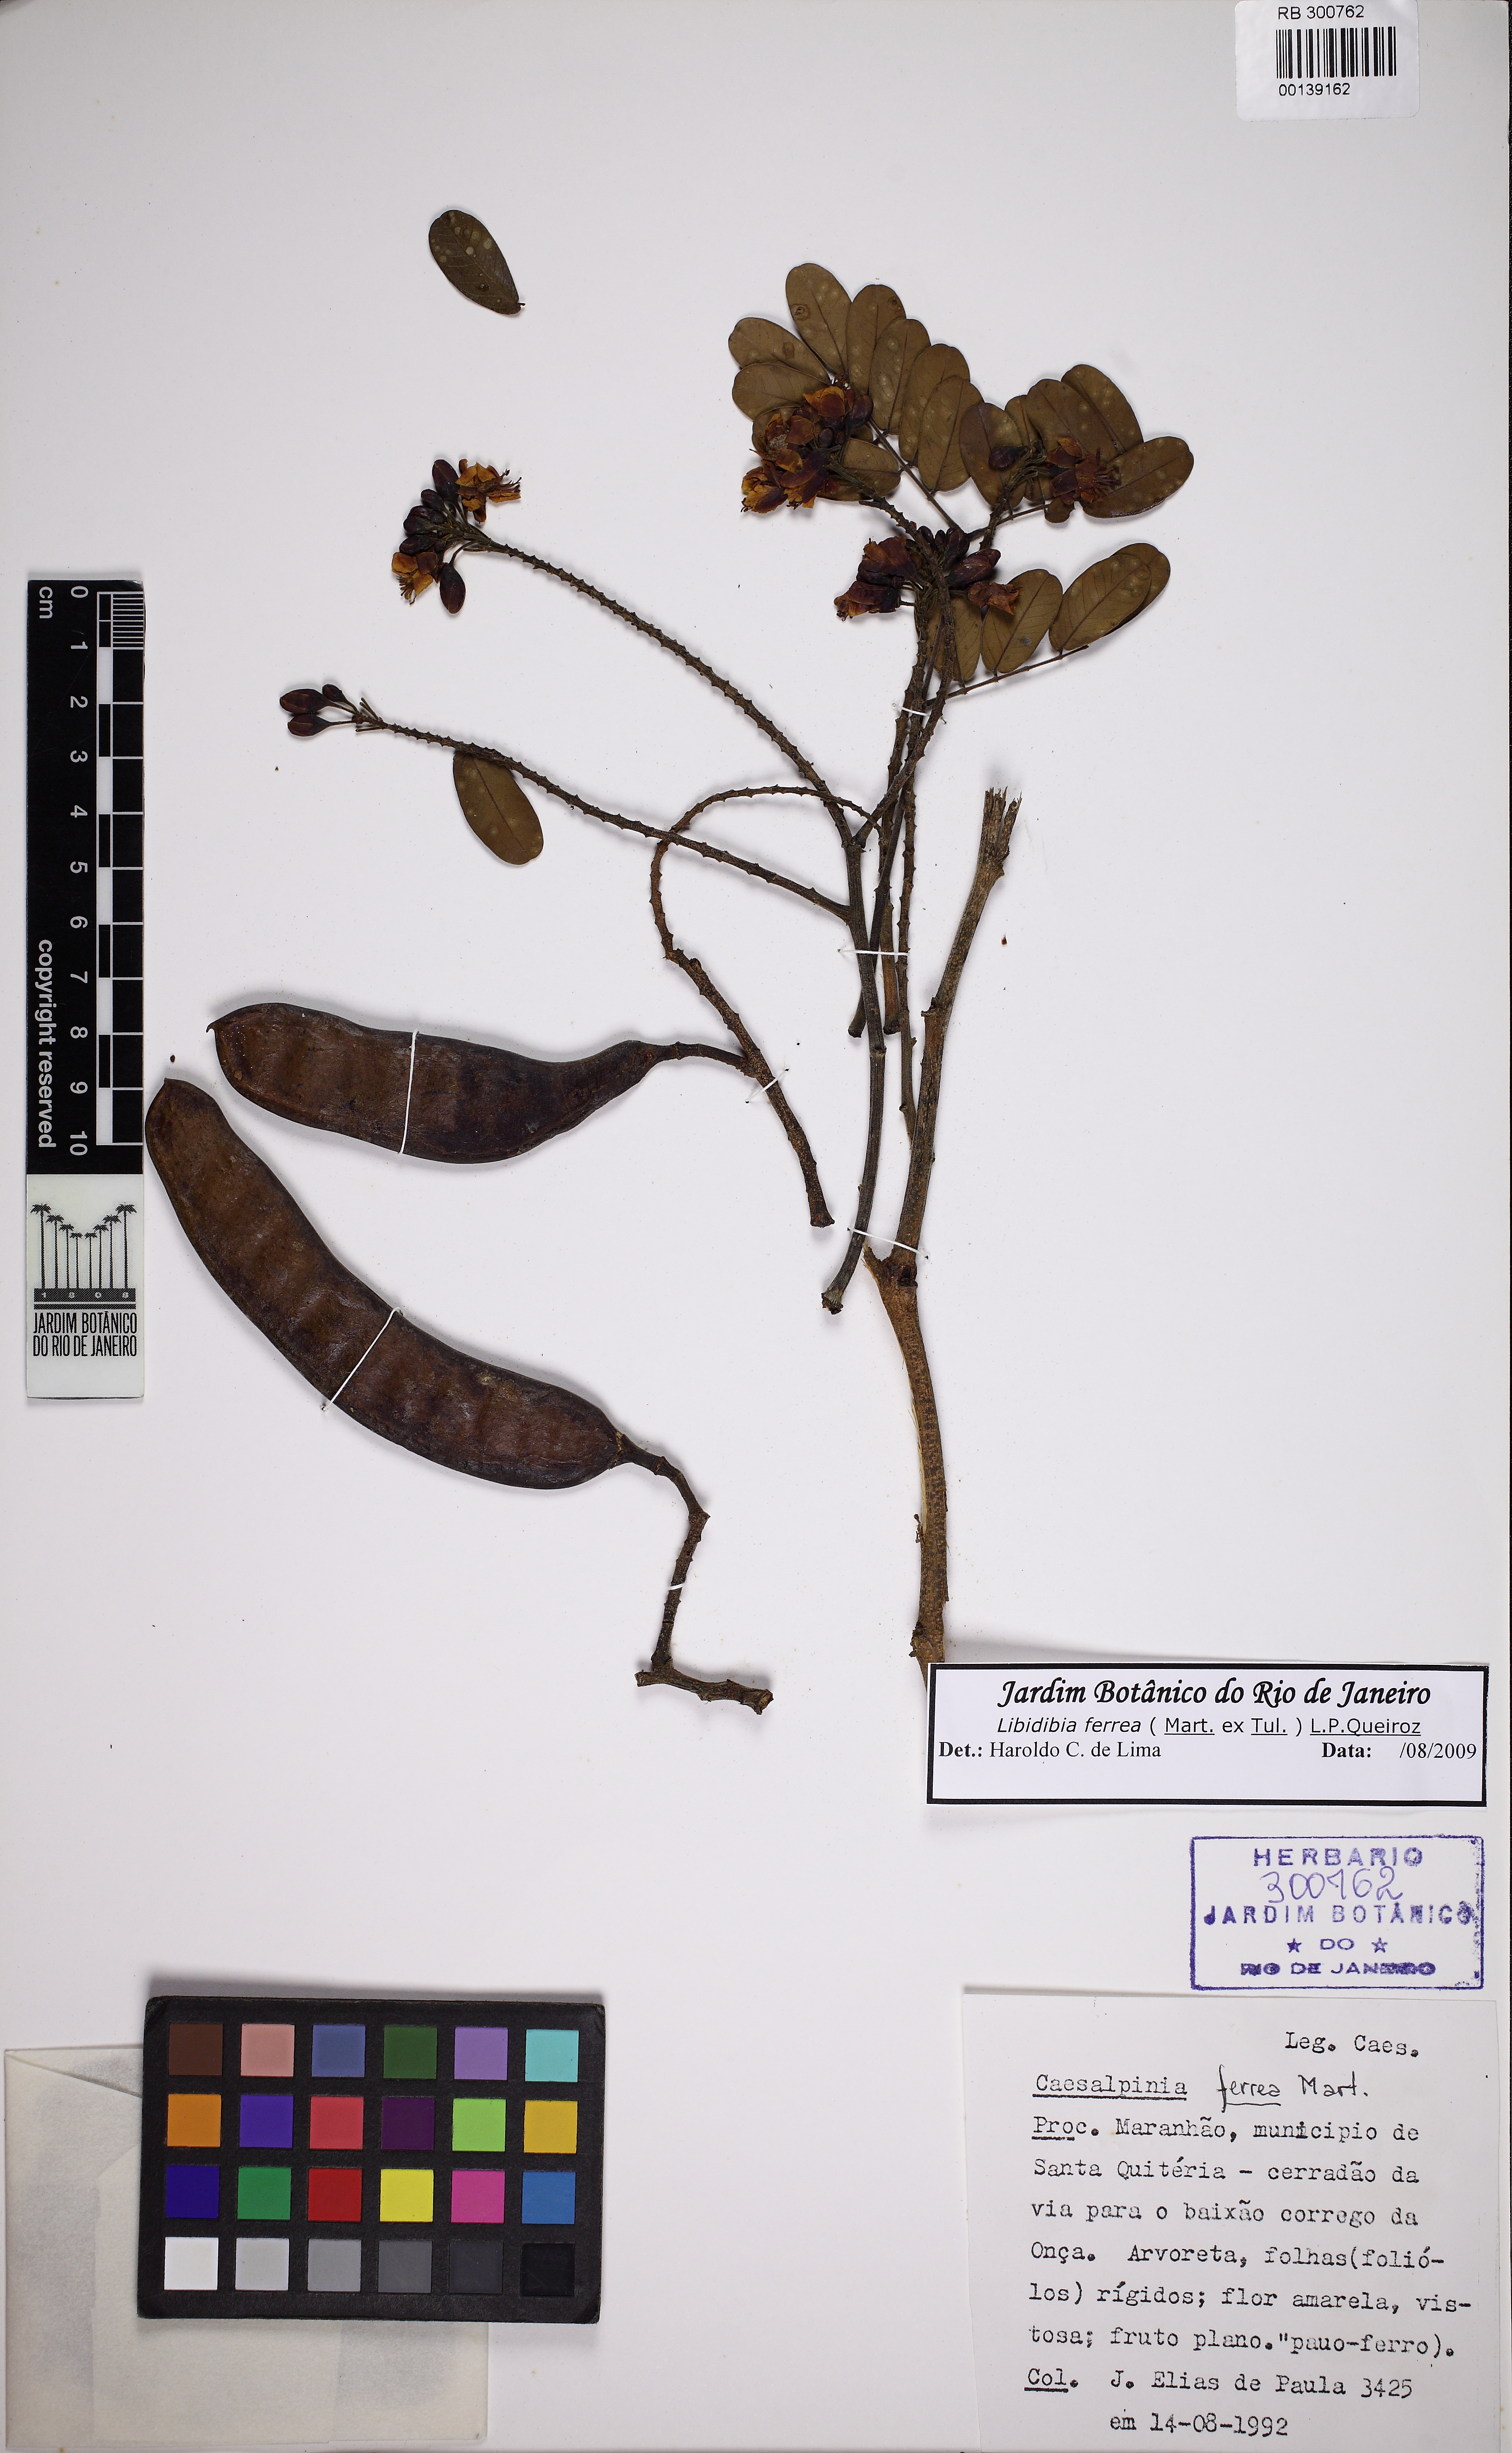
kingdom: Plantae
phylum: Tracheophyta
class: Magnoliopsida
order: Fabales
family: Fabaceae
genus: Libidibia
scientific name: Libidibia ferrea
